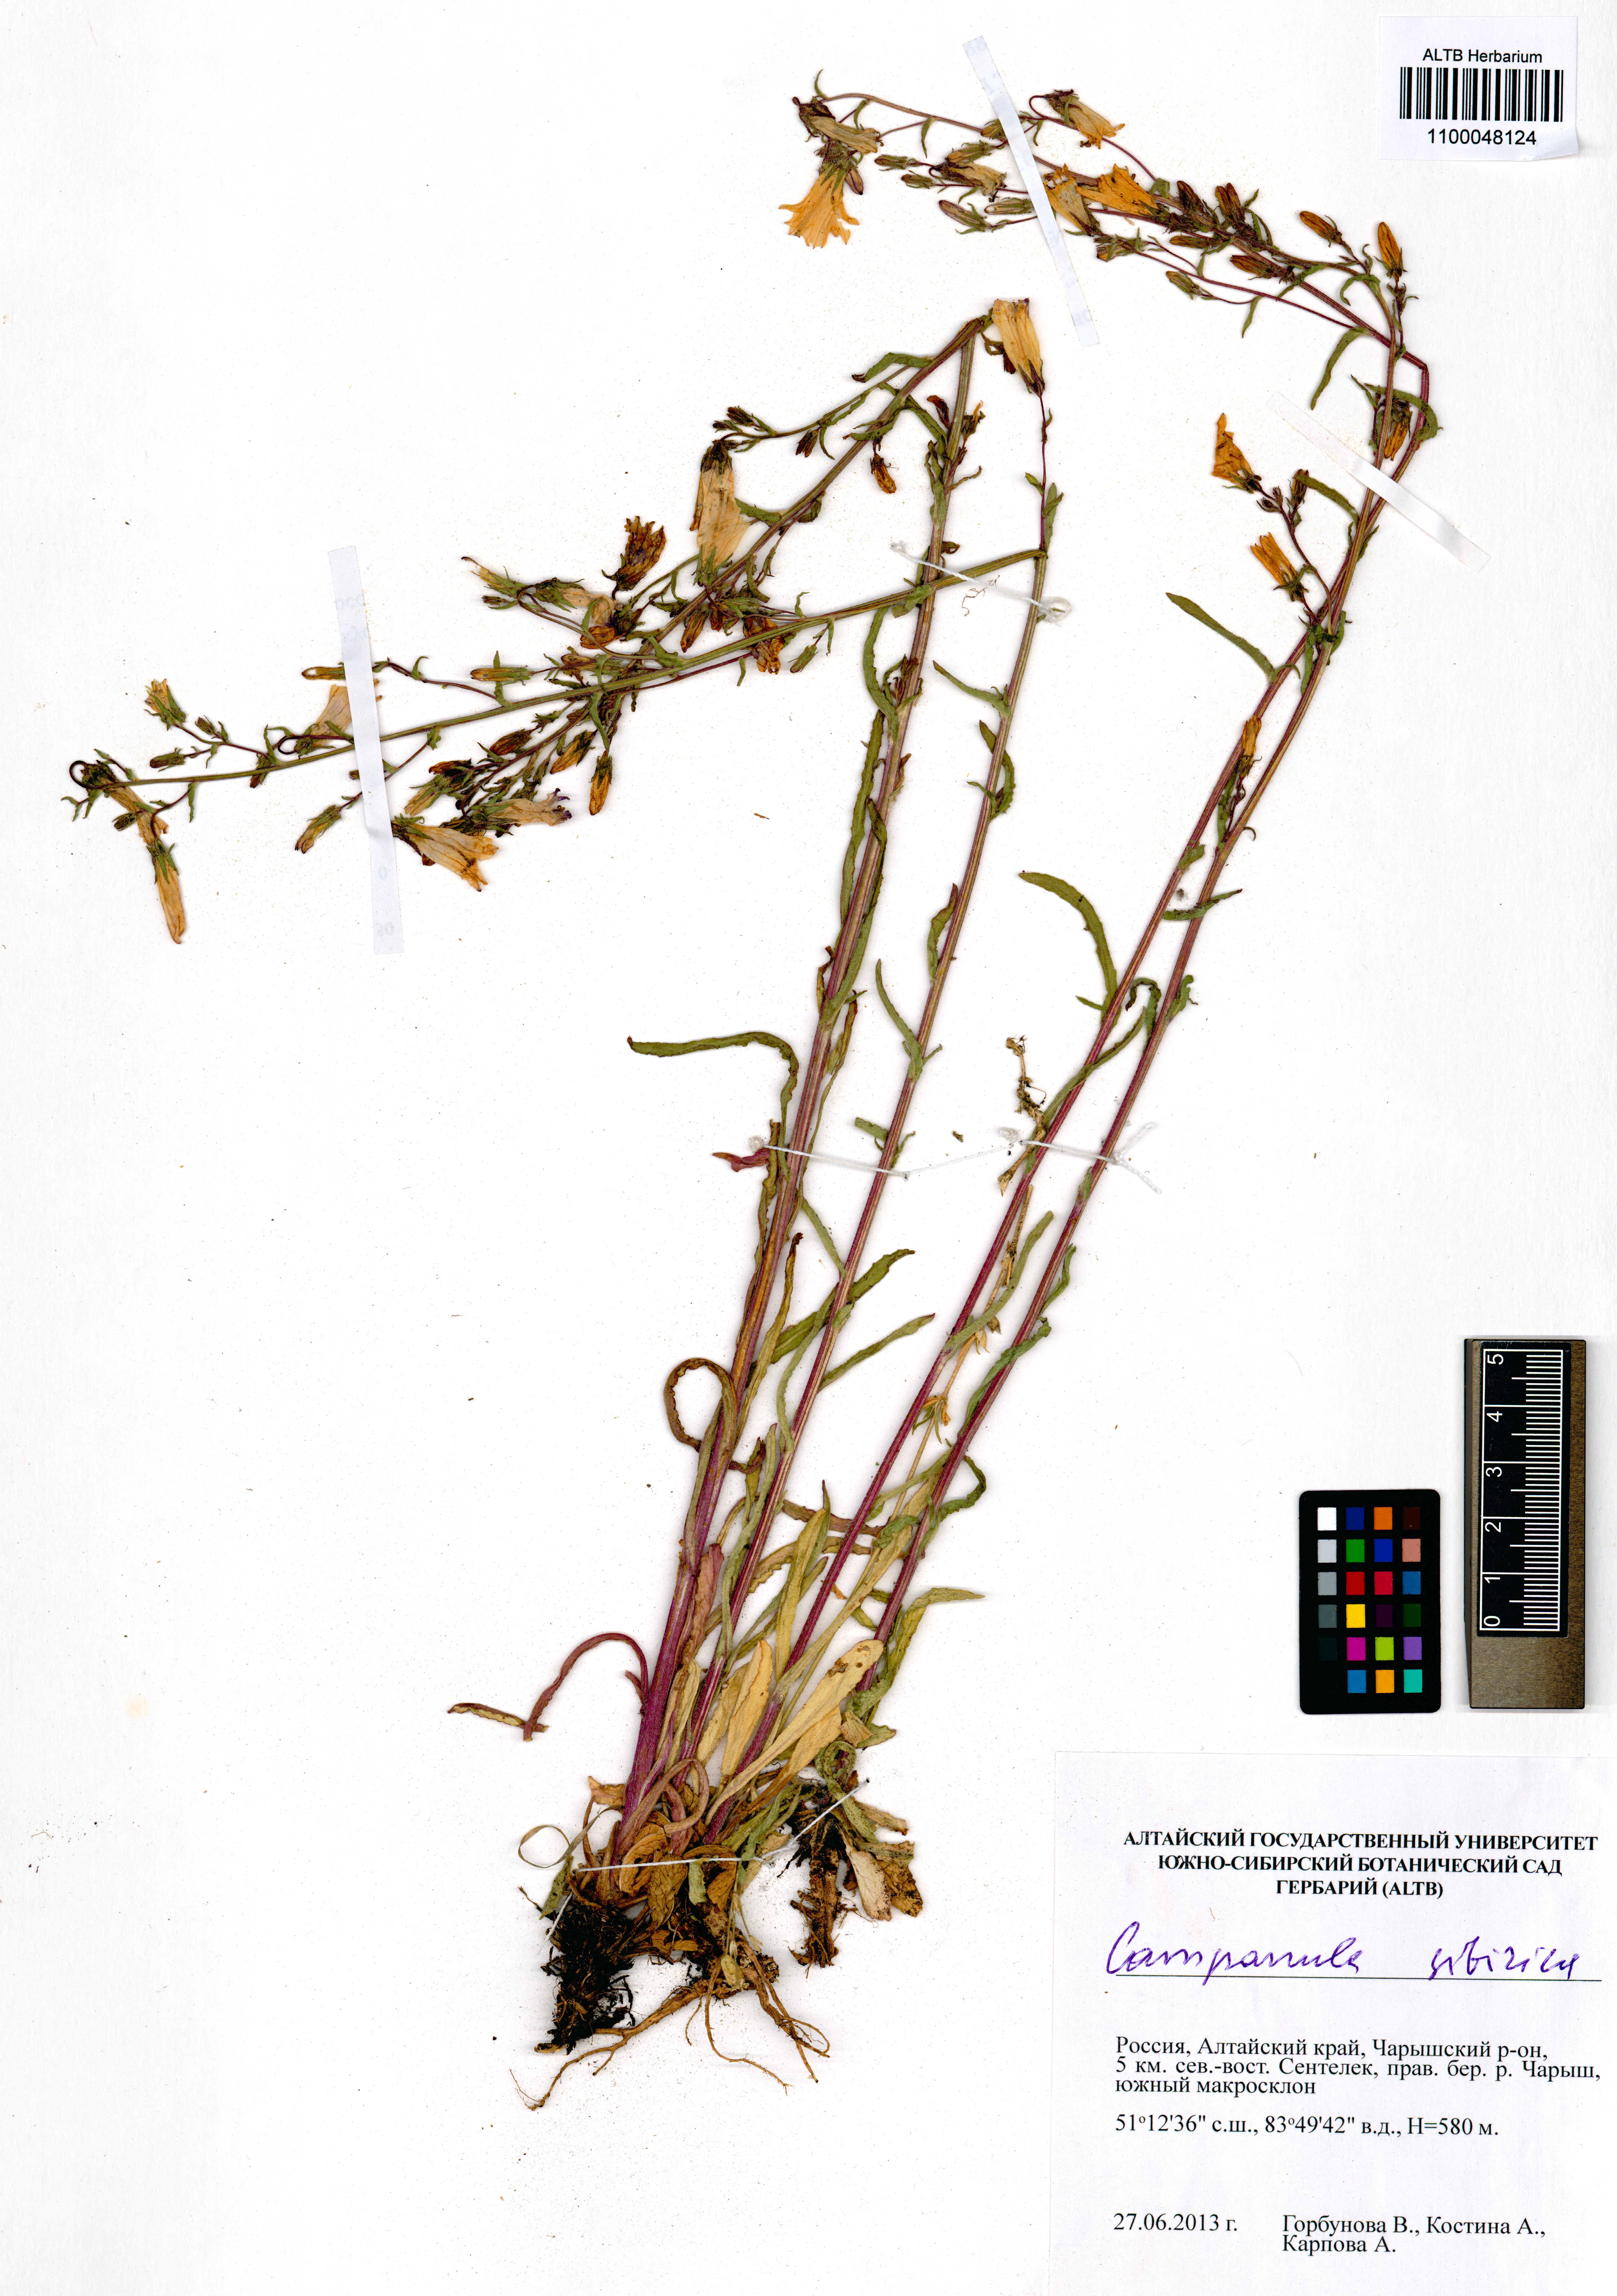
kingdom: Plantae
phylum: Tracheophyta
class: Magnoliopsida
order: Asterales
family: Campanulaceae
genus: Campanula
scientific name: Campanula sibirica
